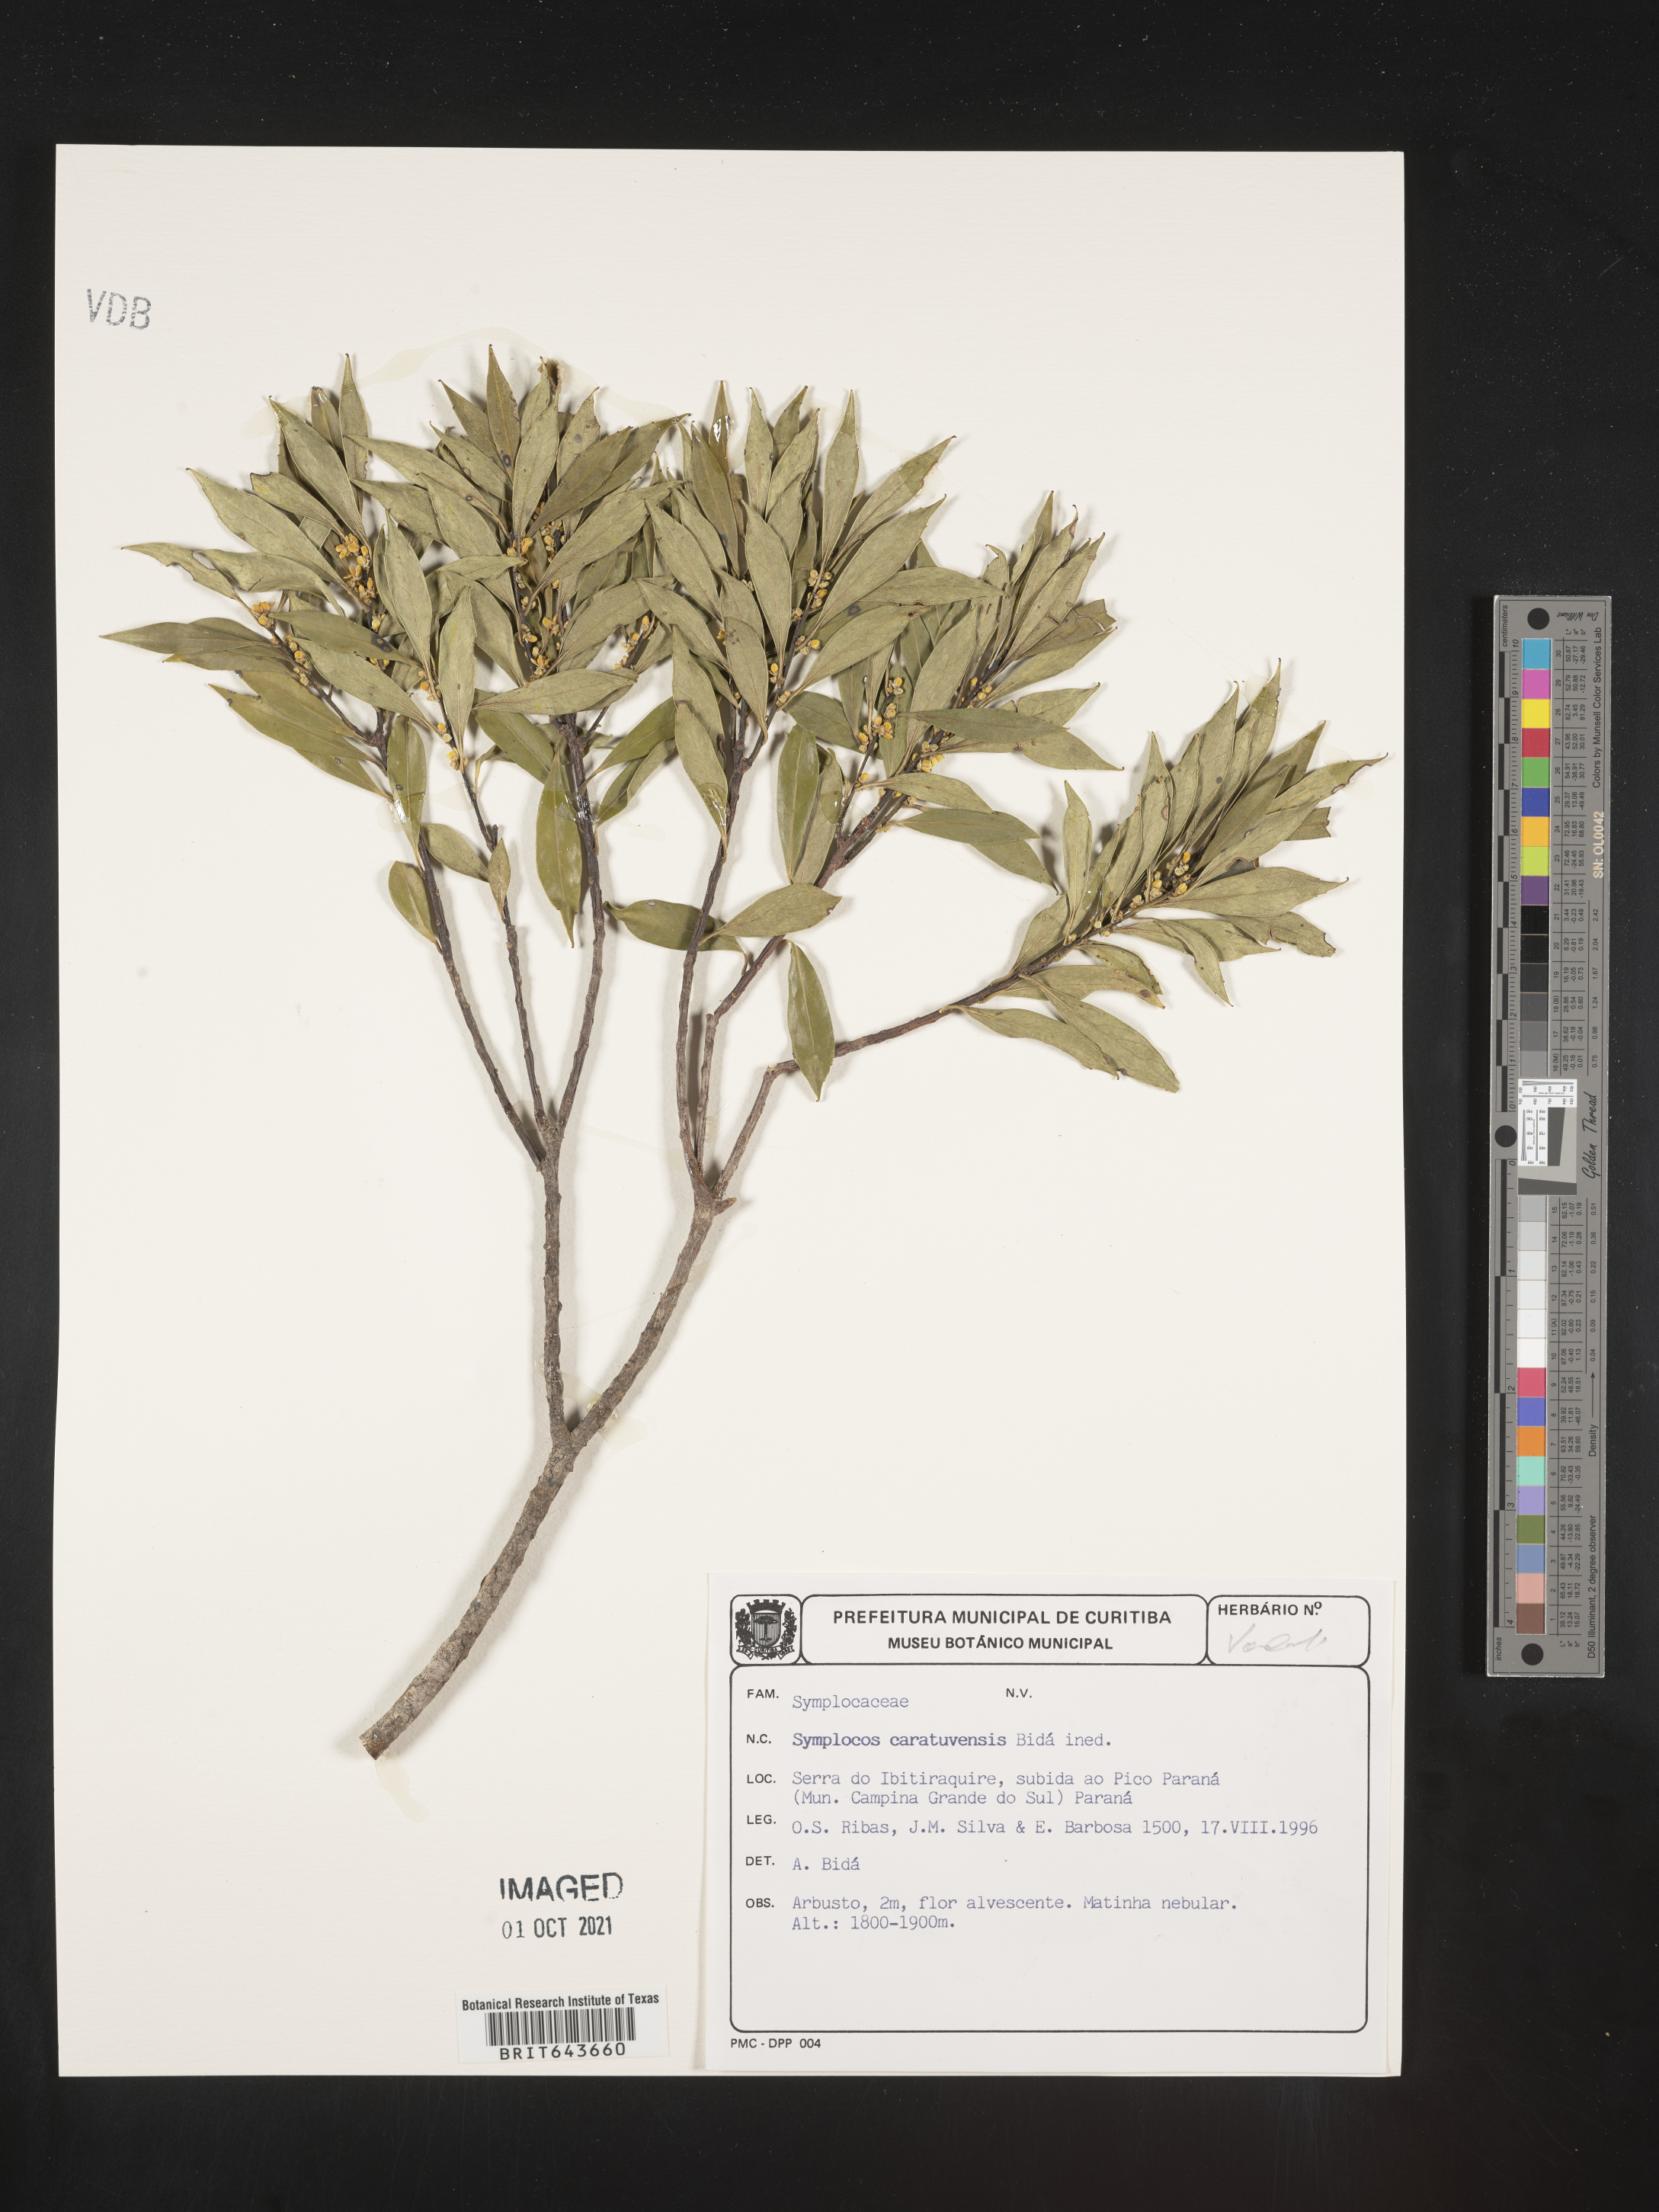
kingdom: Plantae
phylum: Tracheophyta
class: Magnoliopsida
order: Ericales
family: Symplocaceae
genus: Symplocos
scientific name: Symplocos
